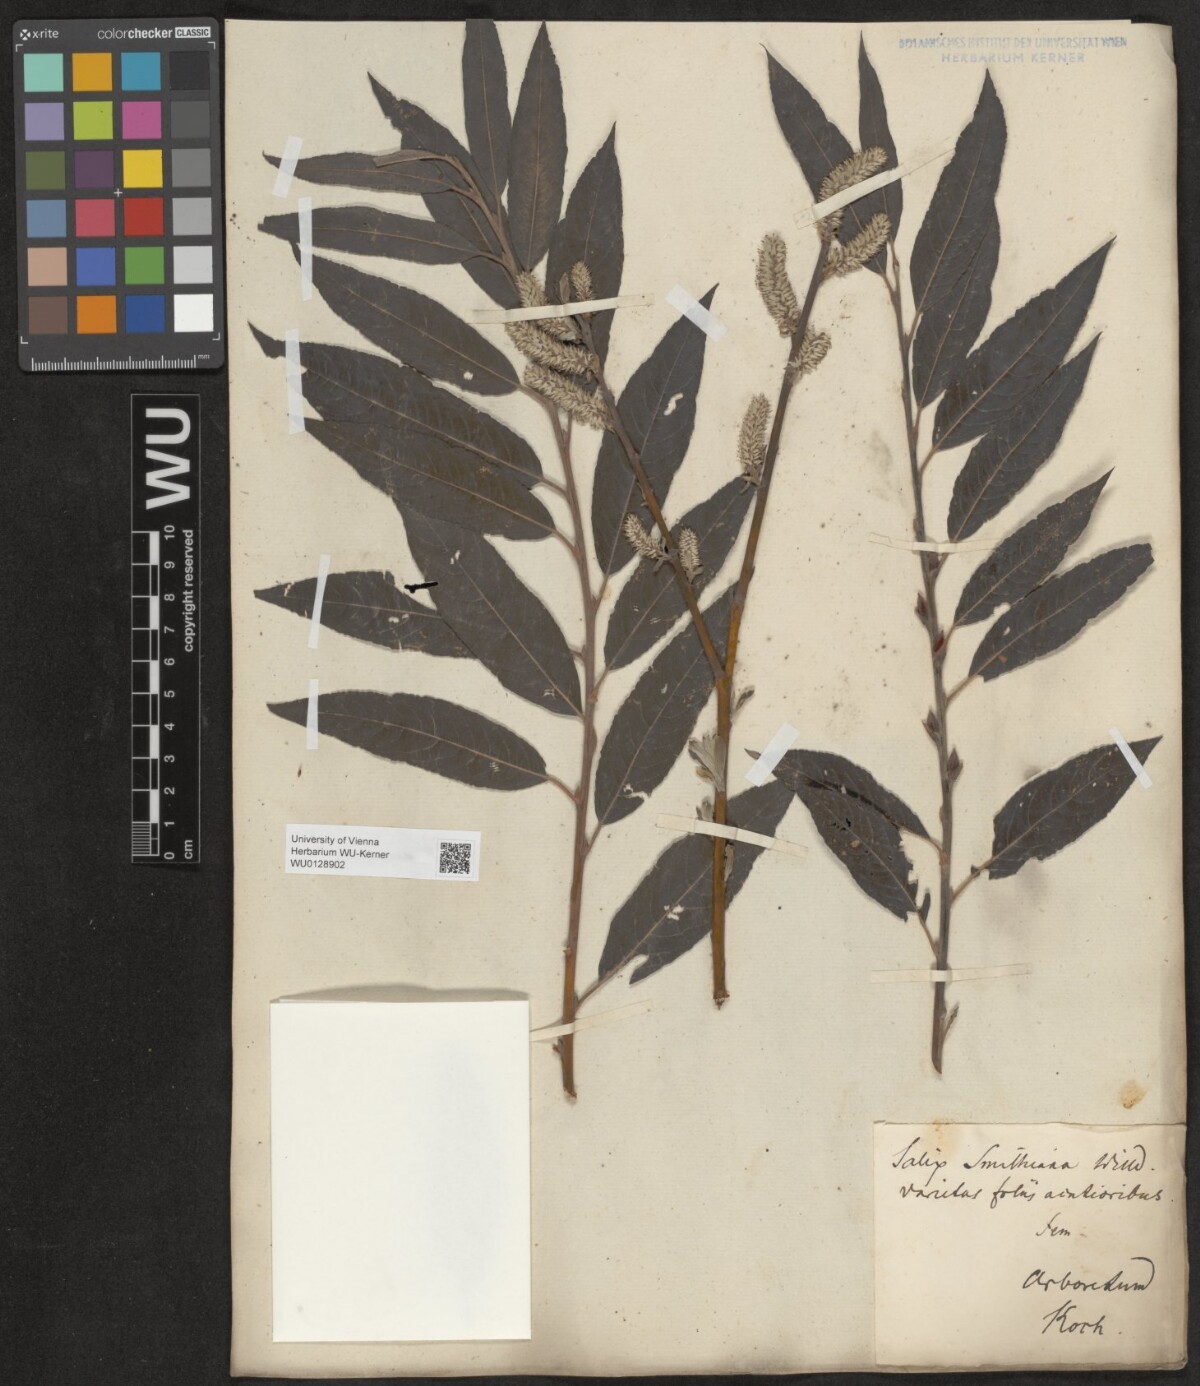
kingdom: Plantae
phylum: Tracheophyta
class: Magnoliopsida
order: Malpighiales
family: Salicaceae
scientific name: Salicaceae
